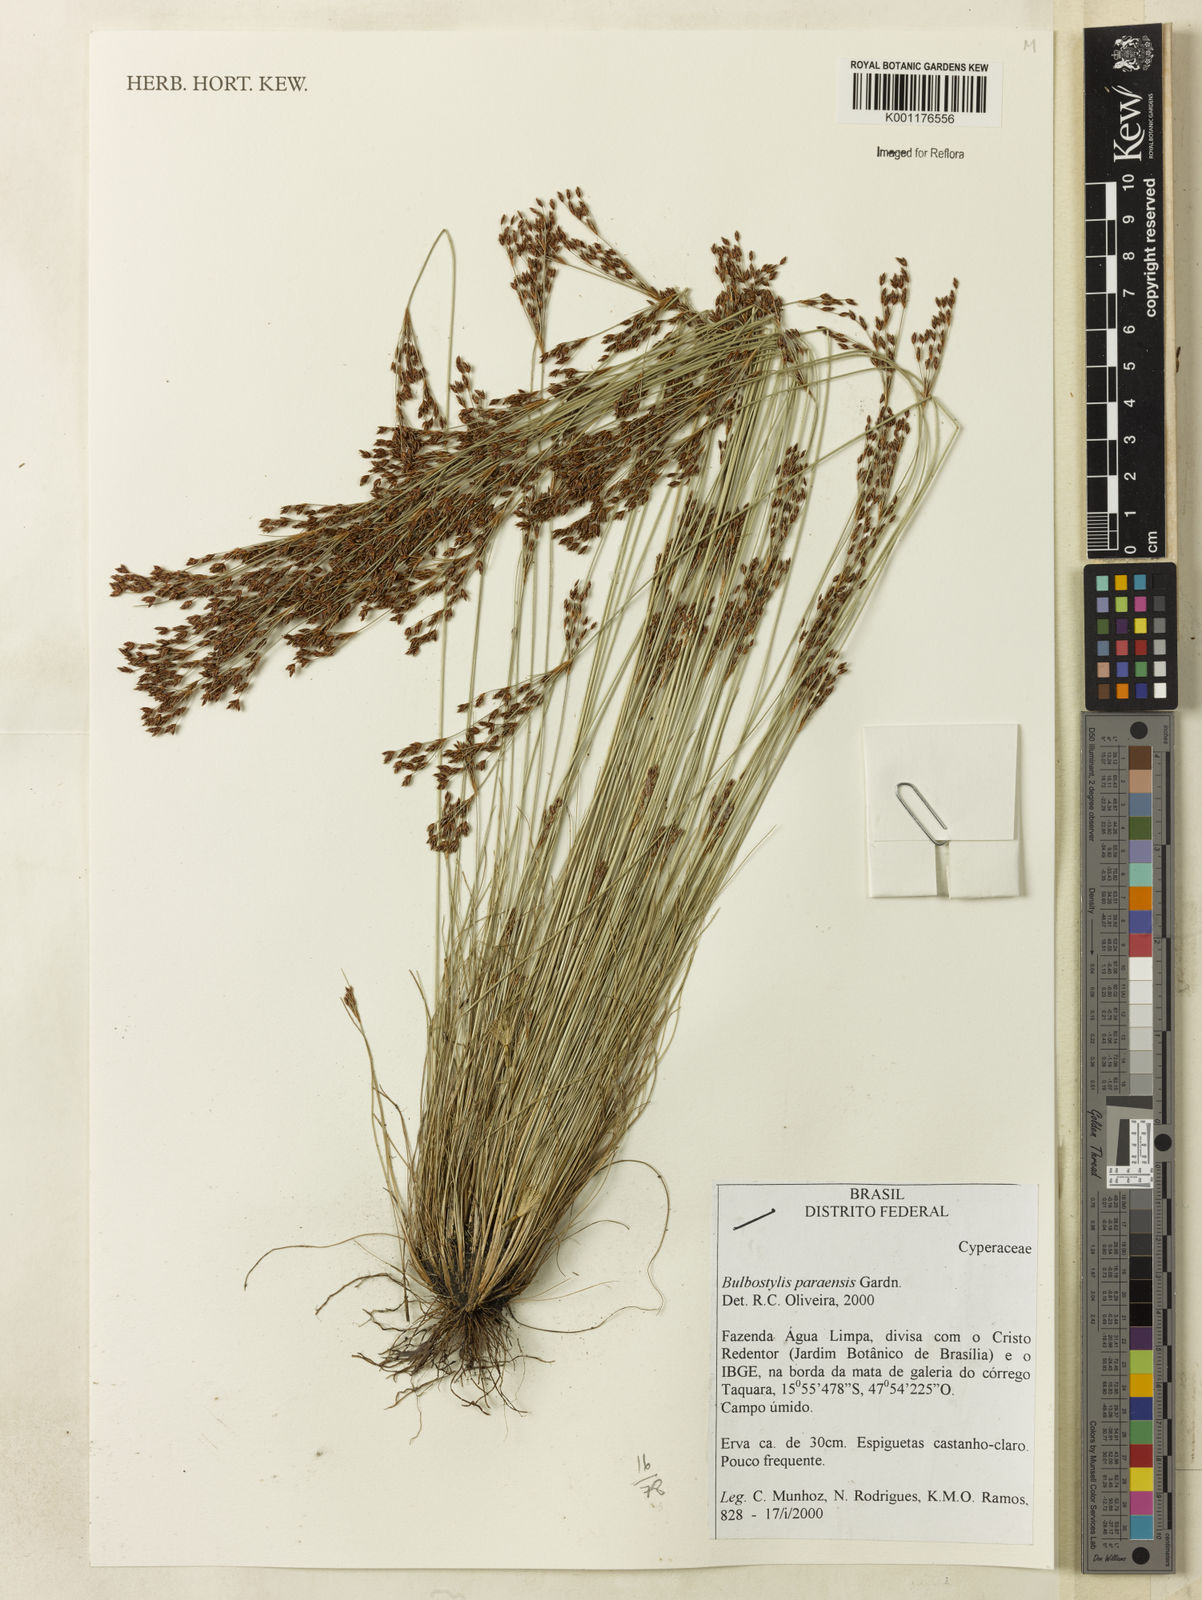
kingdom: Plantae
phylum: Tracheophyta
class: Liliopsida
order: Poales
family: Cyperaceae
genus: Bulbostylis
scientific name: Bulbostylis paraensis
